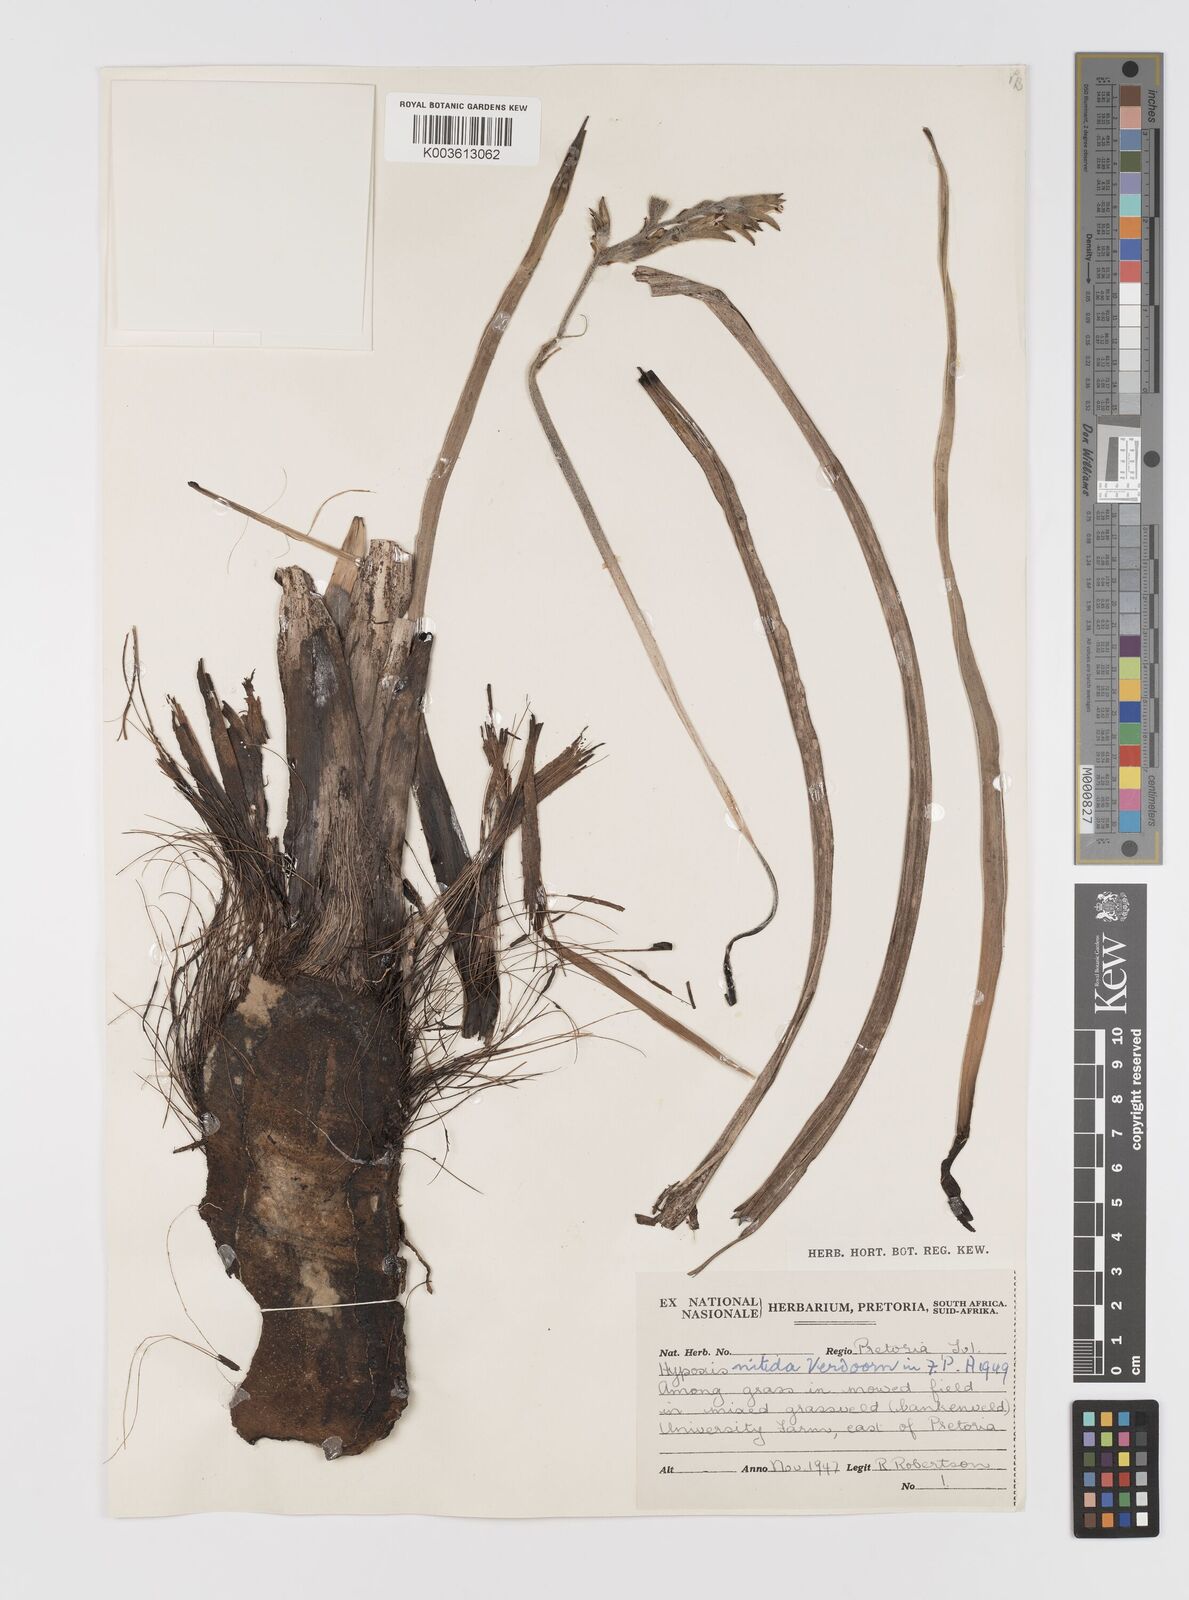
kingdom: Plantae
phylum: Tracheophyta
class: Liliopsida
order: Asparagales
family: Hypoxidaceae
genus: Hypoxis
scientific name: Hypoxis obtusa
